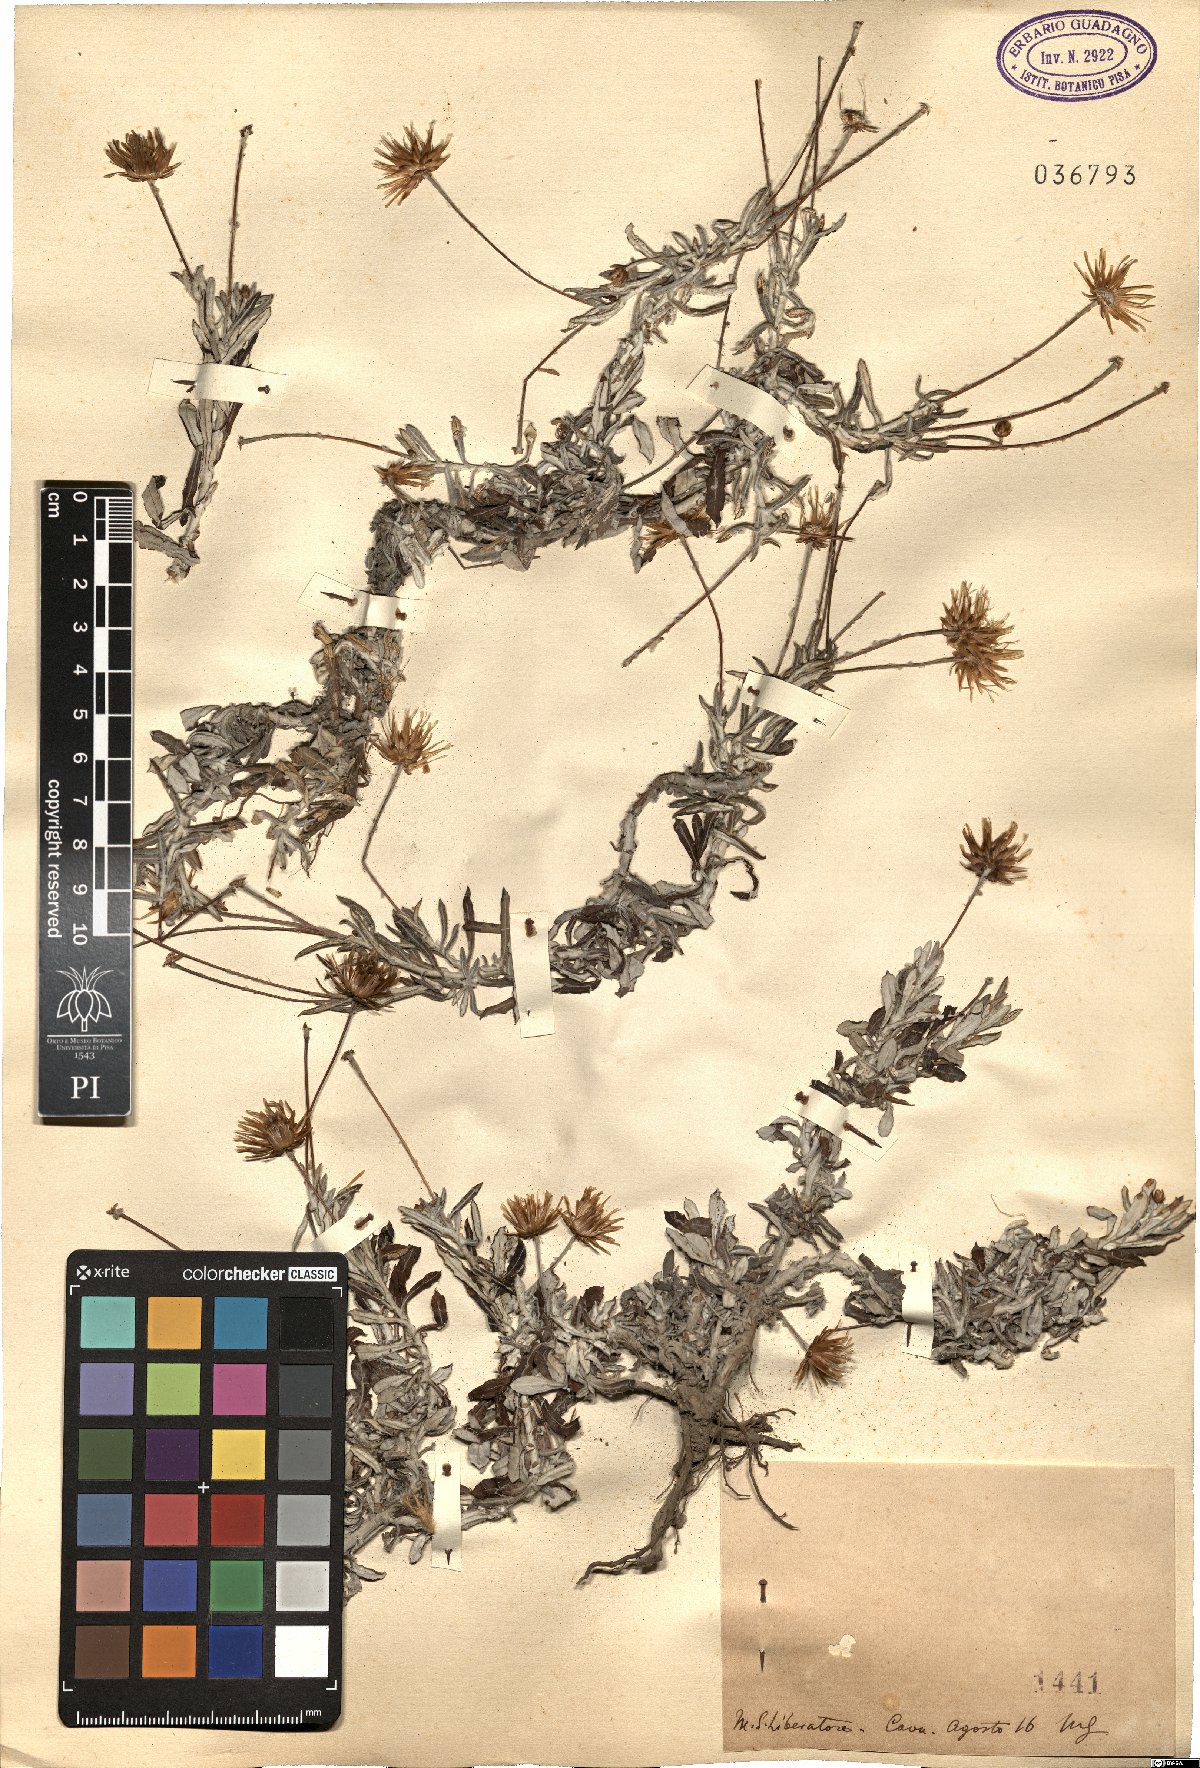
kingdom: Plantae
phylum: Tracheophyta
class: Magnoliopsida
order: Asterales
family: Asteraceae
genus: Phagnalon
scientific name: Phagnalon
